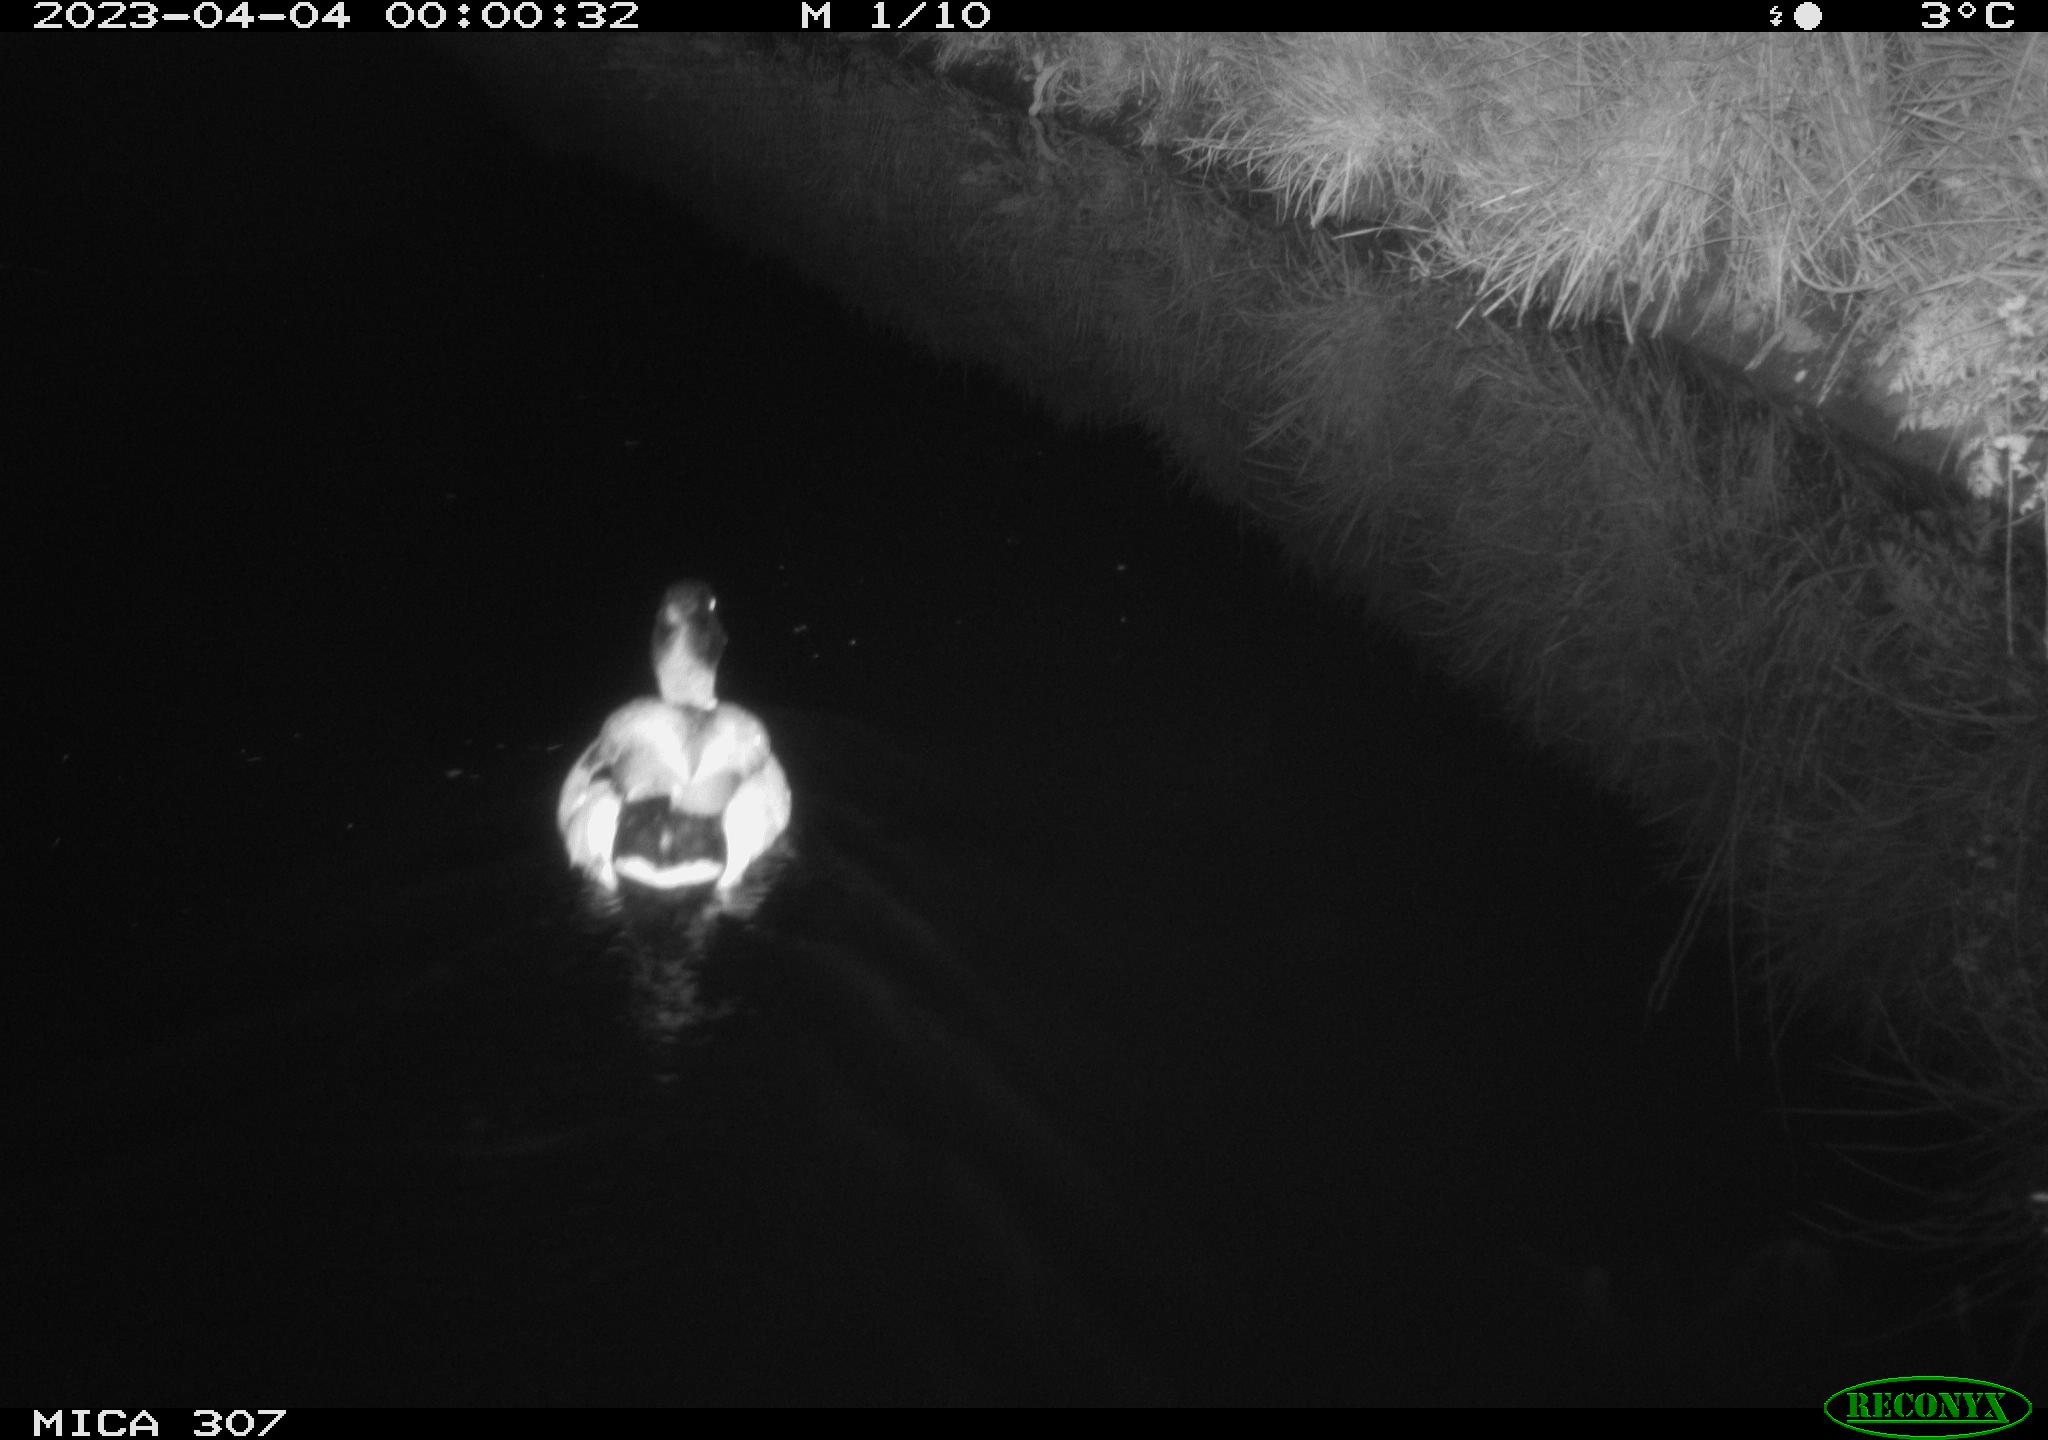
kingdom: Animalia
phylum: Chordata
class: Aves
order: Anseriformes
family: Anatidae
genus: Anas
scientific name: Anas
